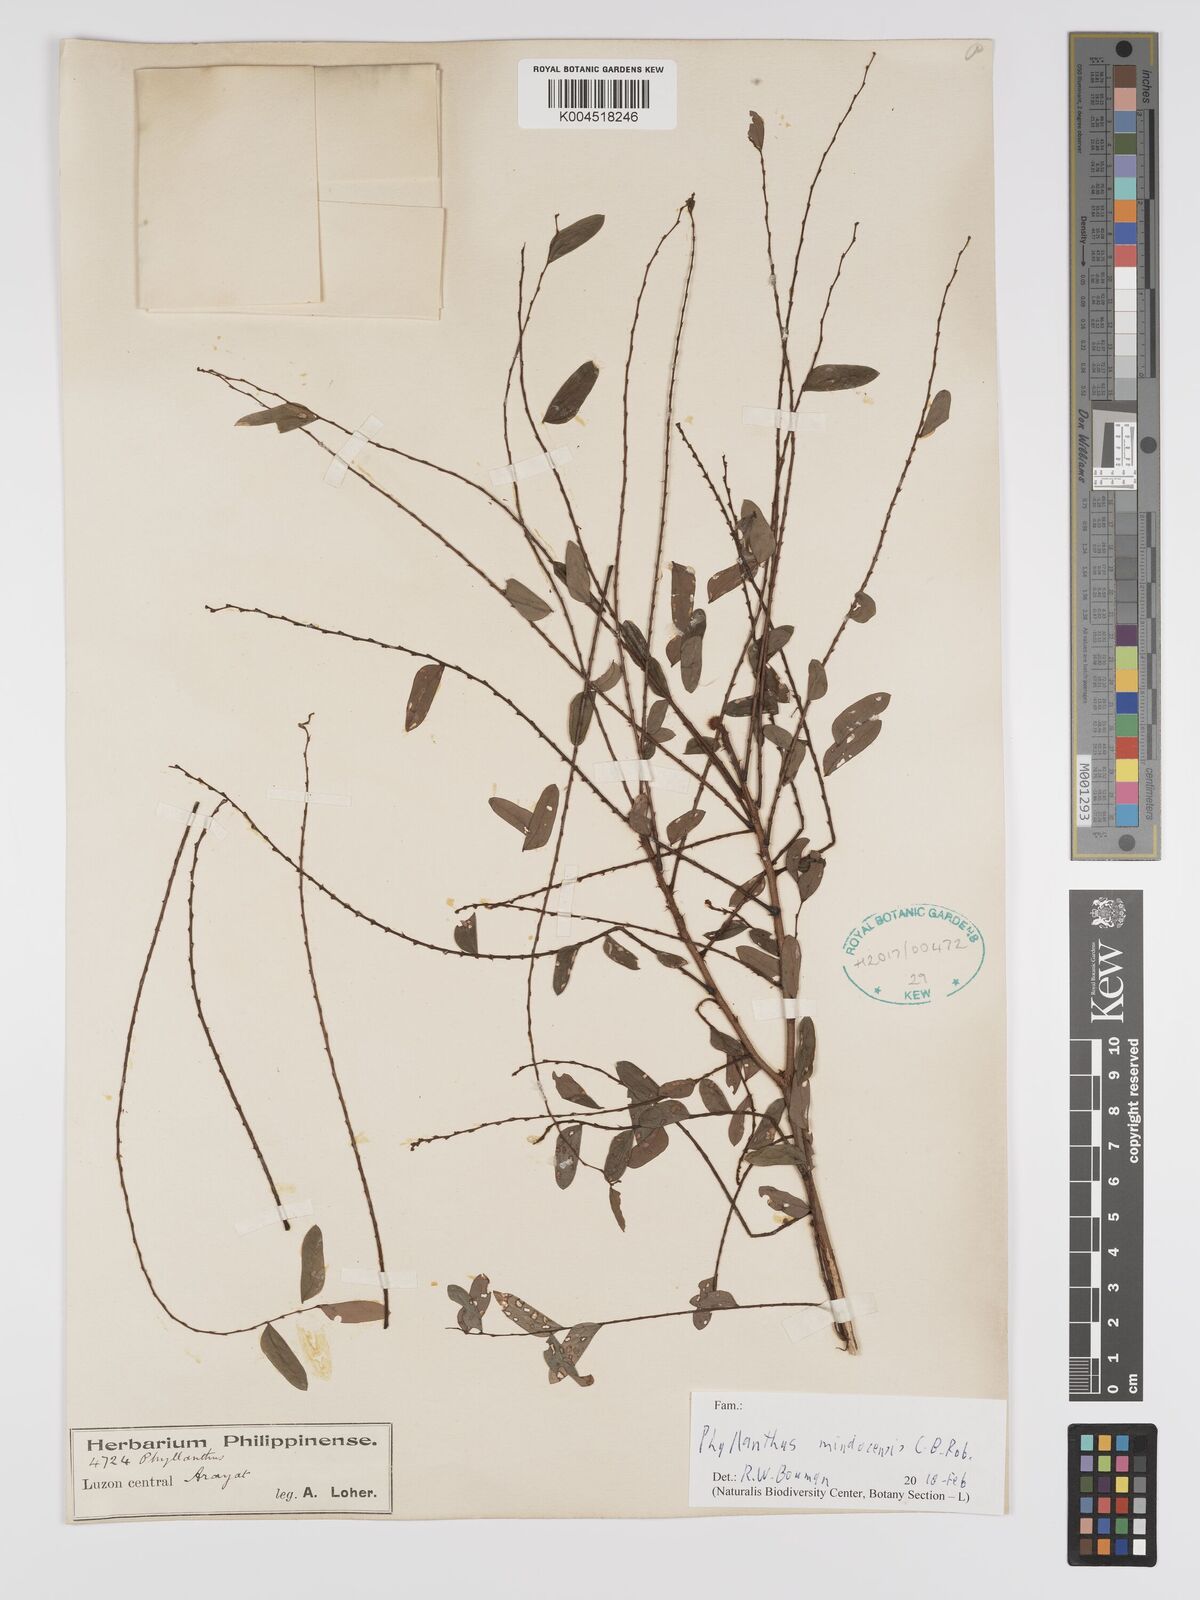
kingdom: Plantae
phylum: Tracheophyta
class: Magnoliopsida
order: Malpighiales
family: Phyllanthaceae
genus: Phyllanthus
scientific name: Phyllanthus celebicus
